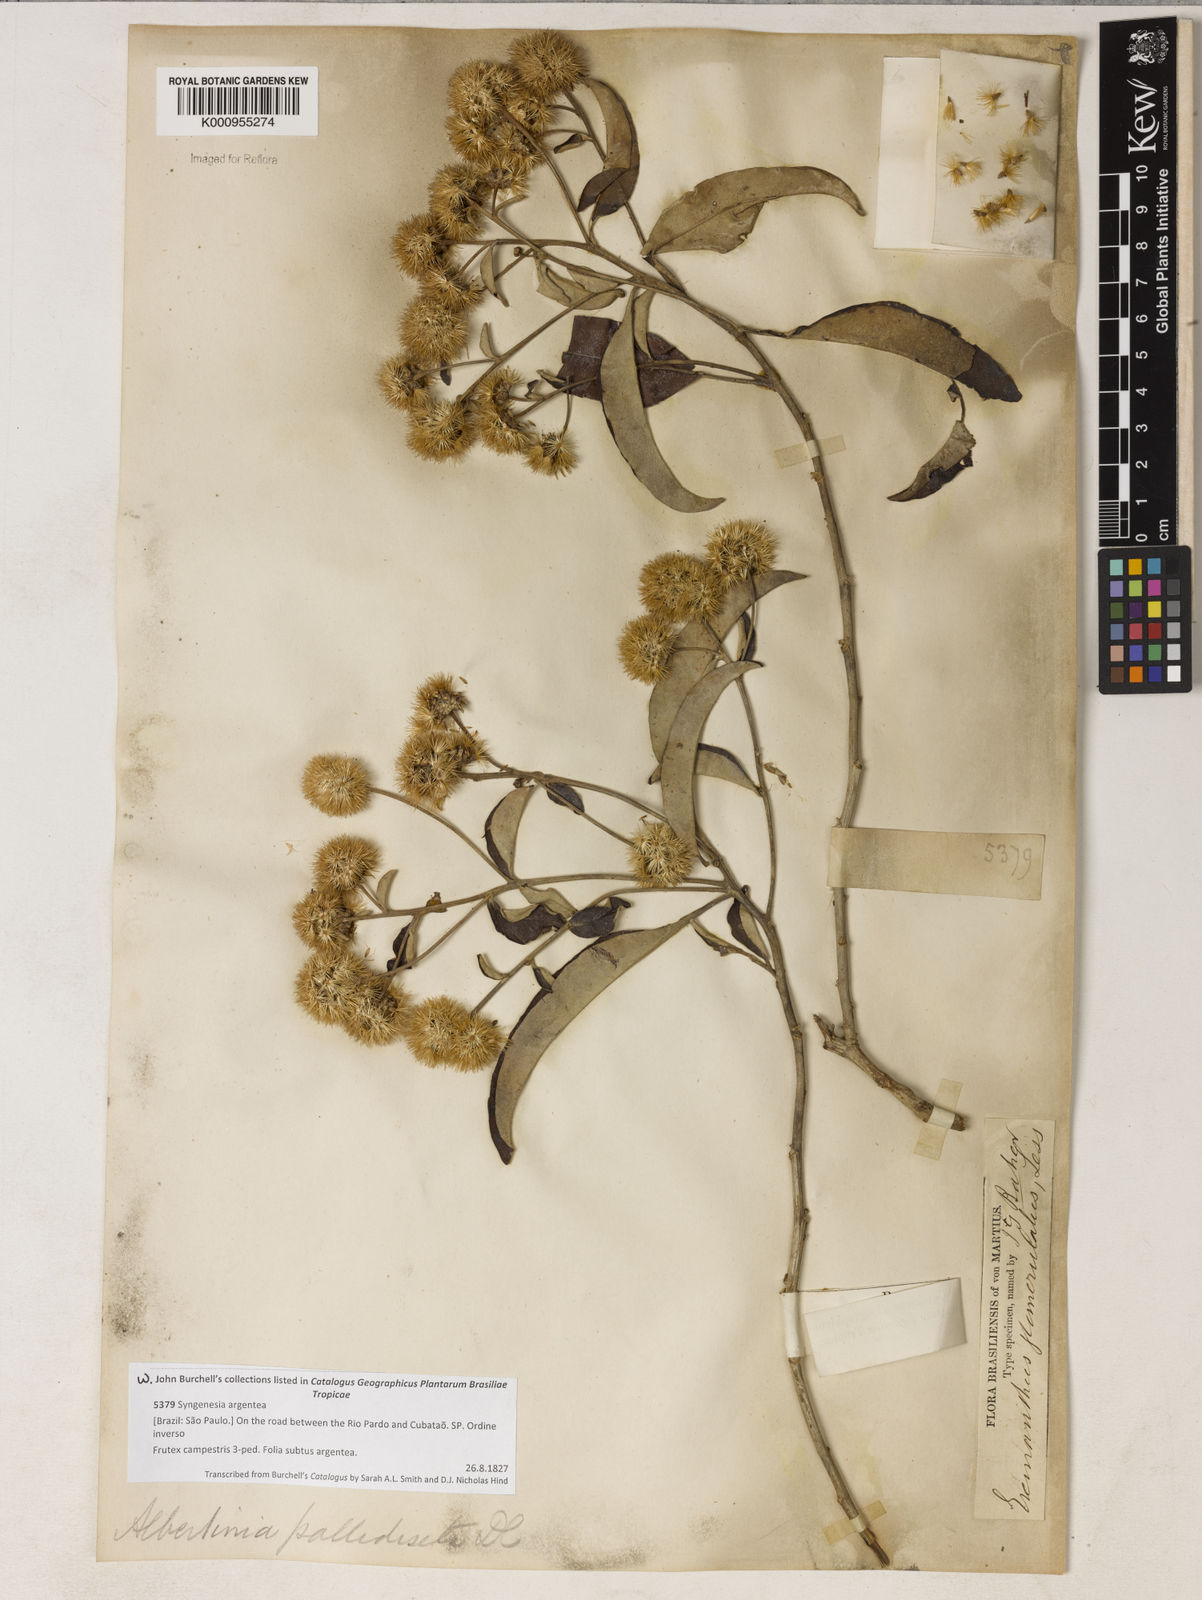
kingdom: Plantae
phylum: Tracheophyta
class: Magnoliopsida
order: Asterales
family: Asteraceae
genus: Eremanthus
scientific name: Eremanthus glomerulatus
